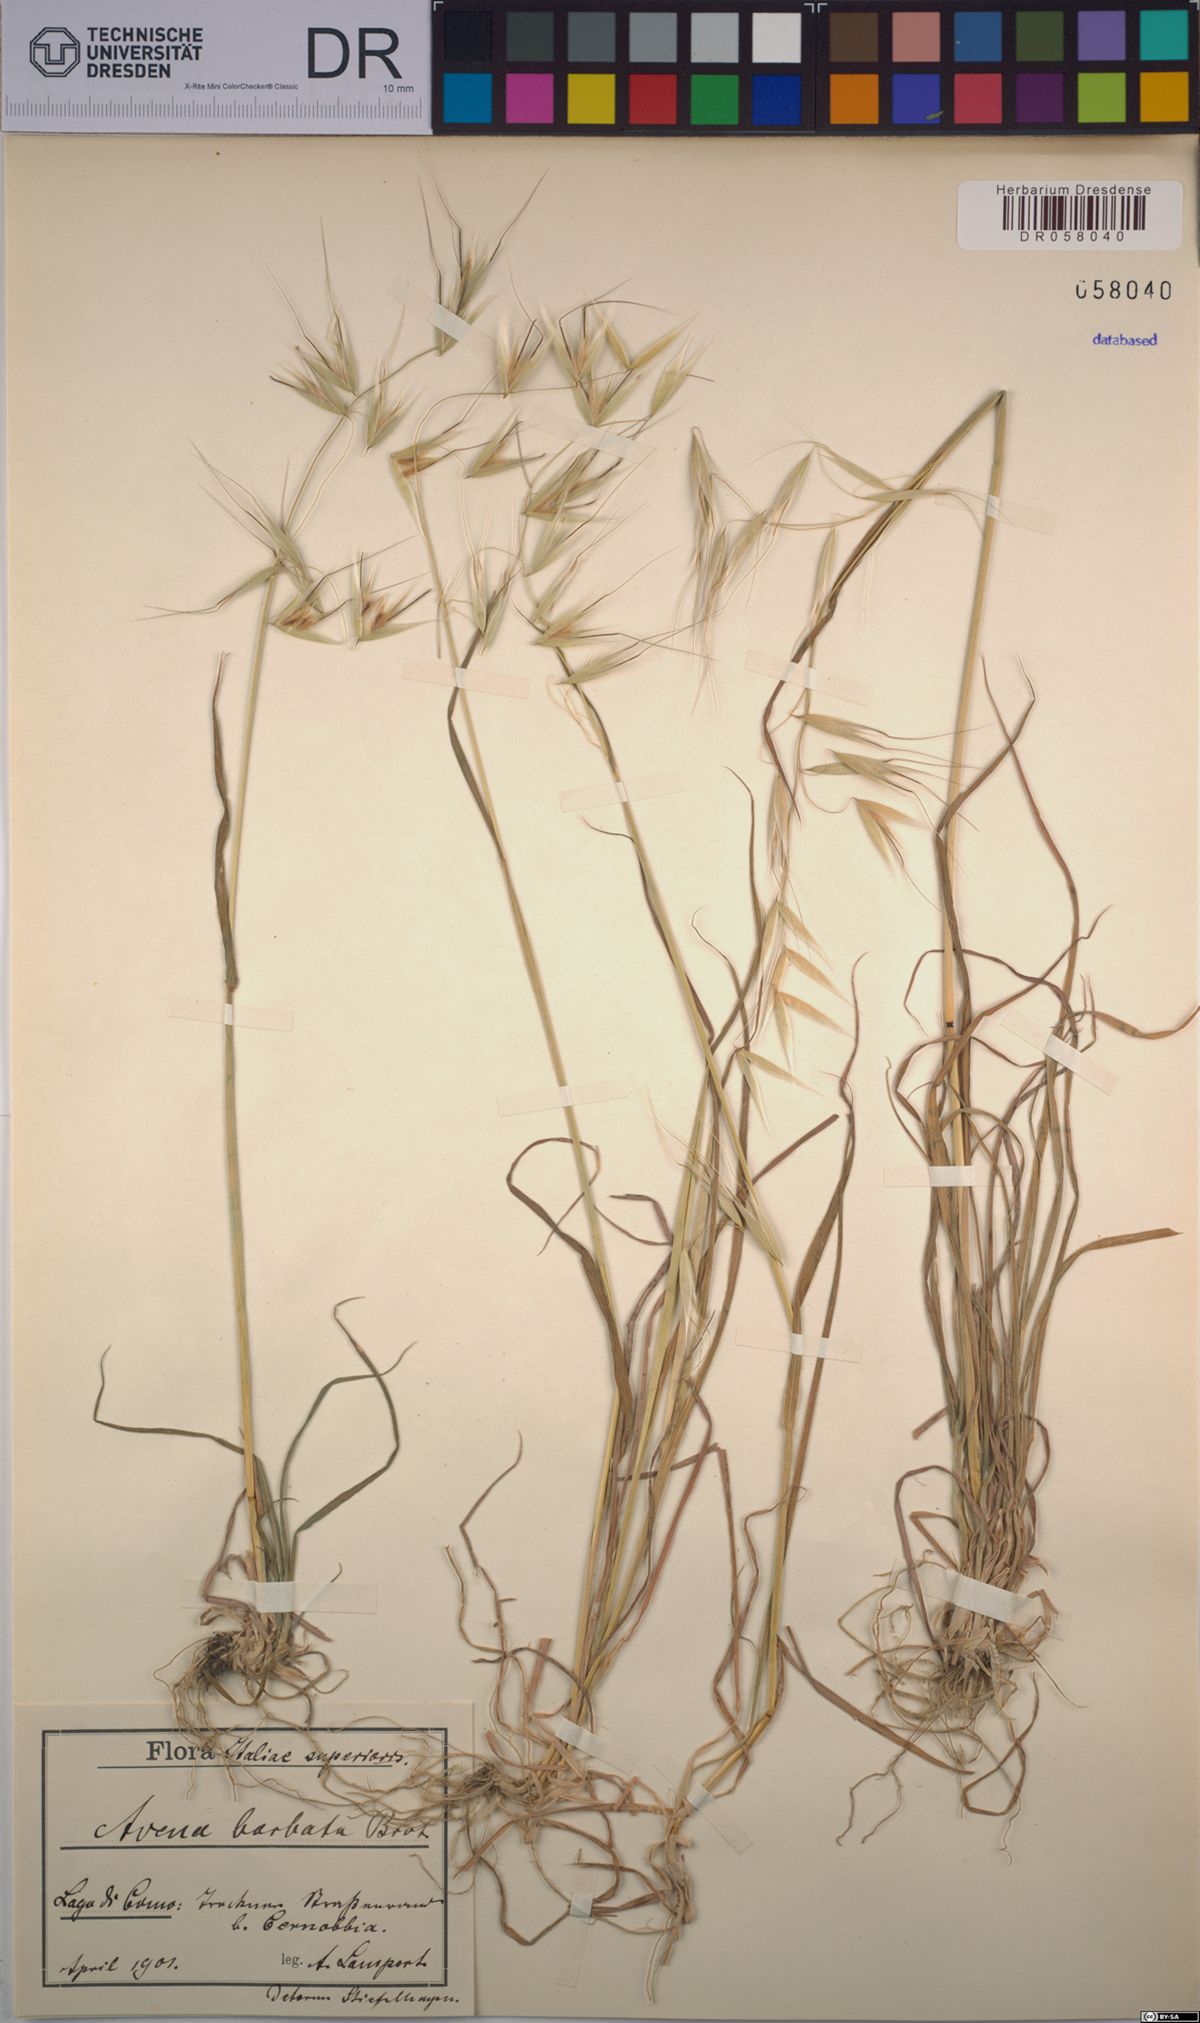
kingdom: Plantae
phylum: Tracheophyta
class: Liliopsida
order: Poales
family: Poaceae
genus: Avena
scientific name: Avena barbata
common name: Slender oat
